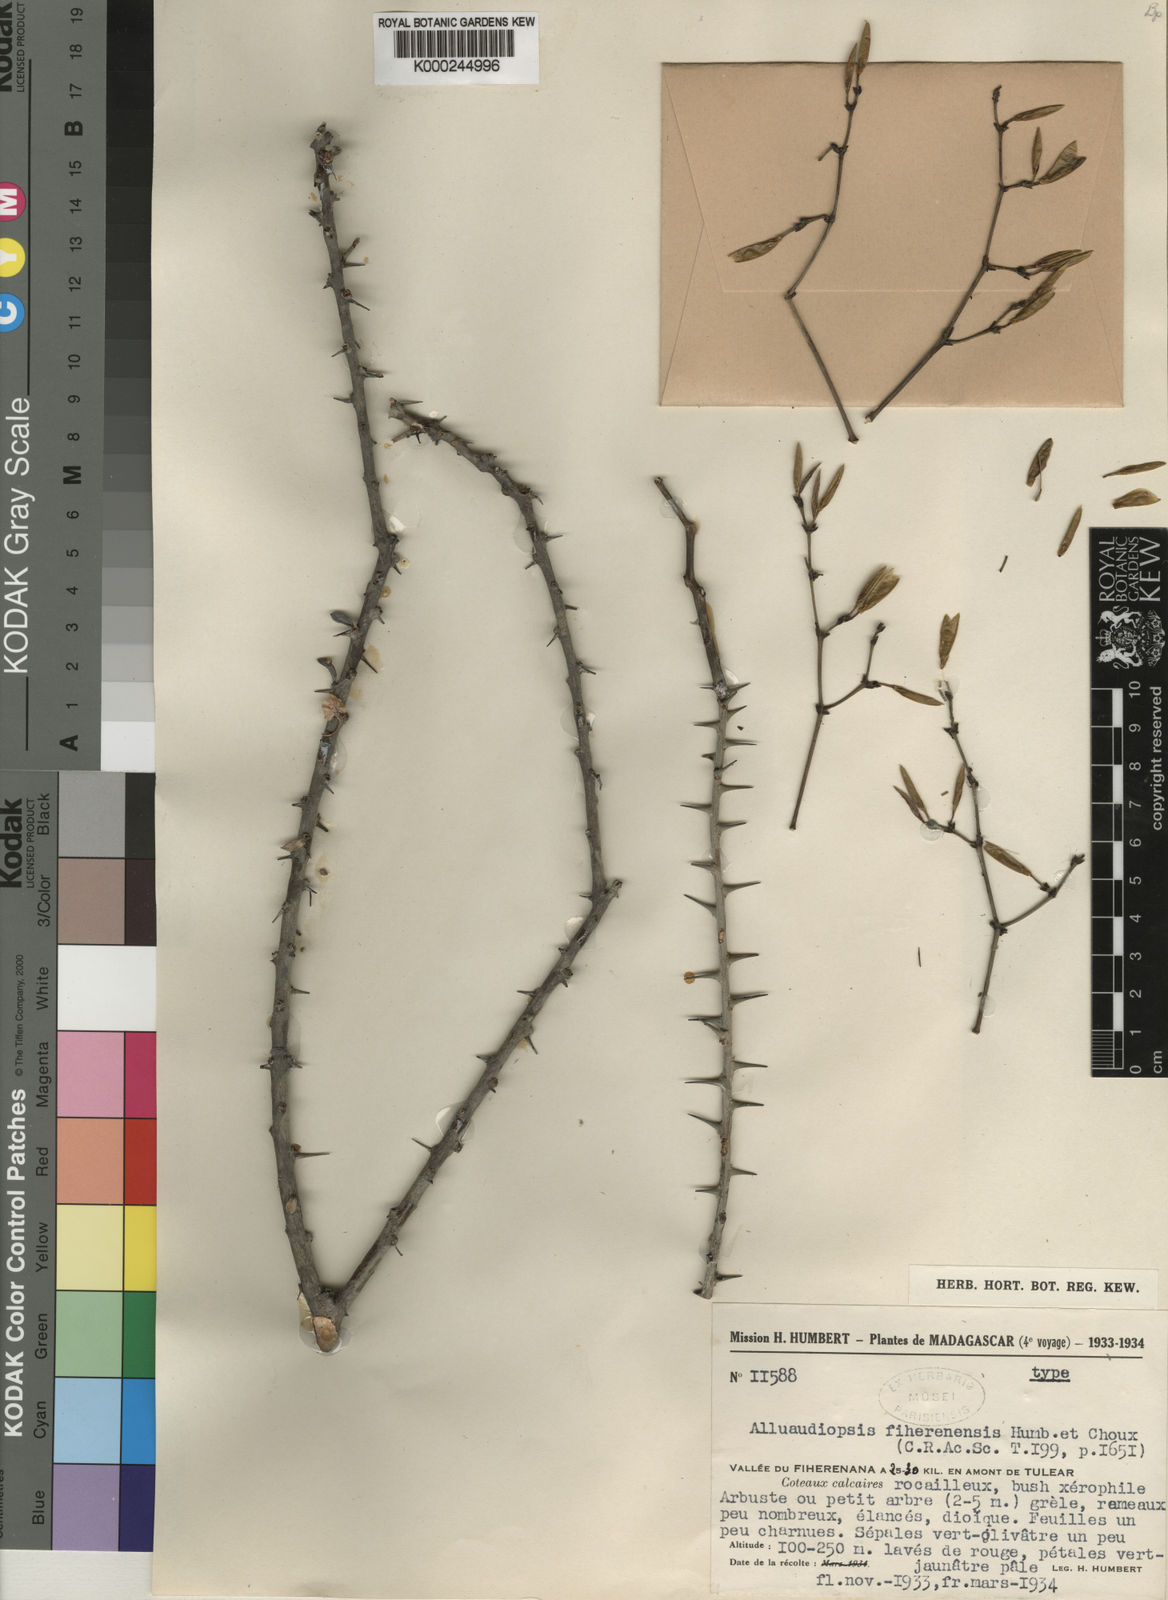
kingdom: Plantae
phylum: Tracheophyta
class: Magnoliopsida
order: Caryophyllales
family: Didiereaceae
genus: Alluaudiopsis
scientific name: Alluaudiopsis fiherenensis
